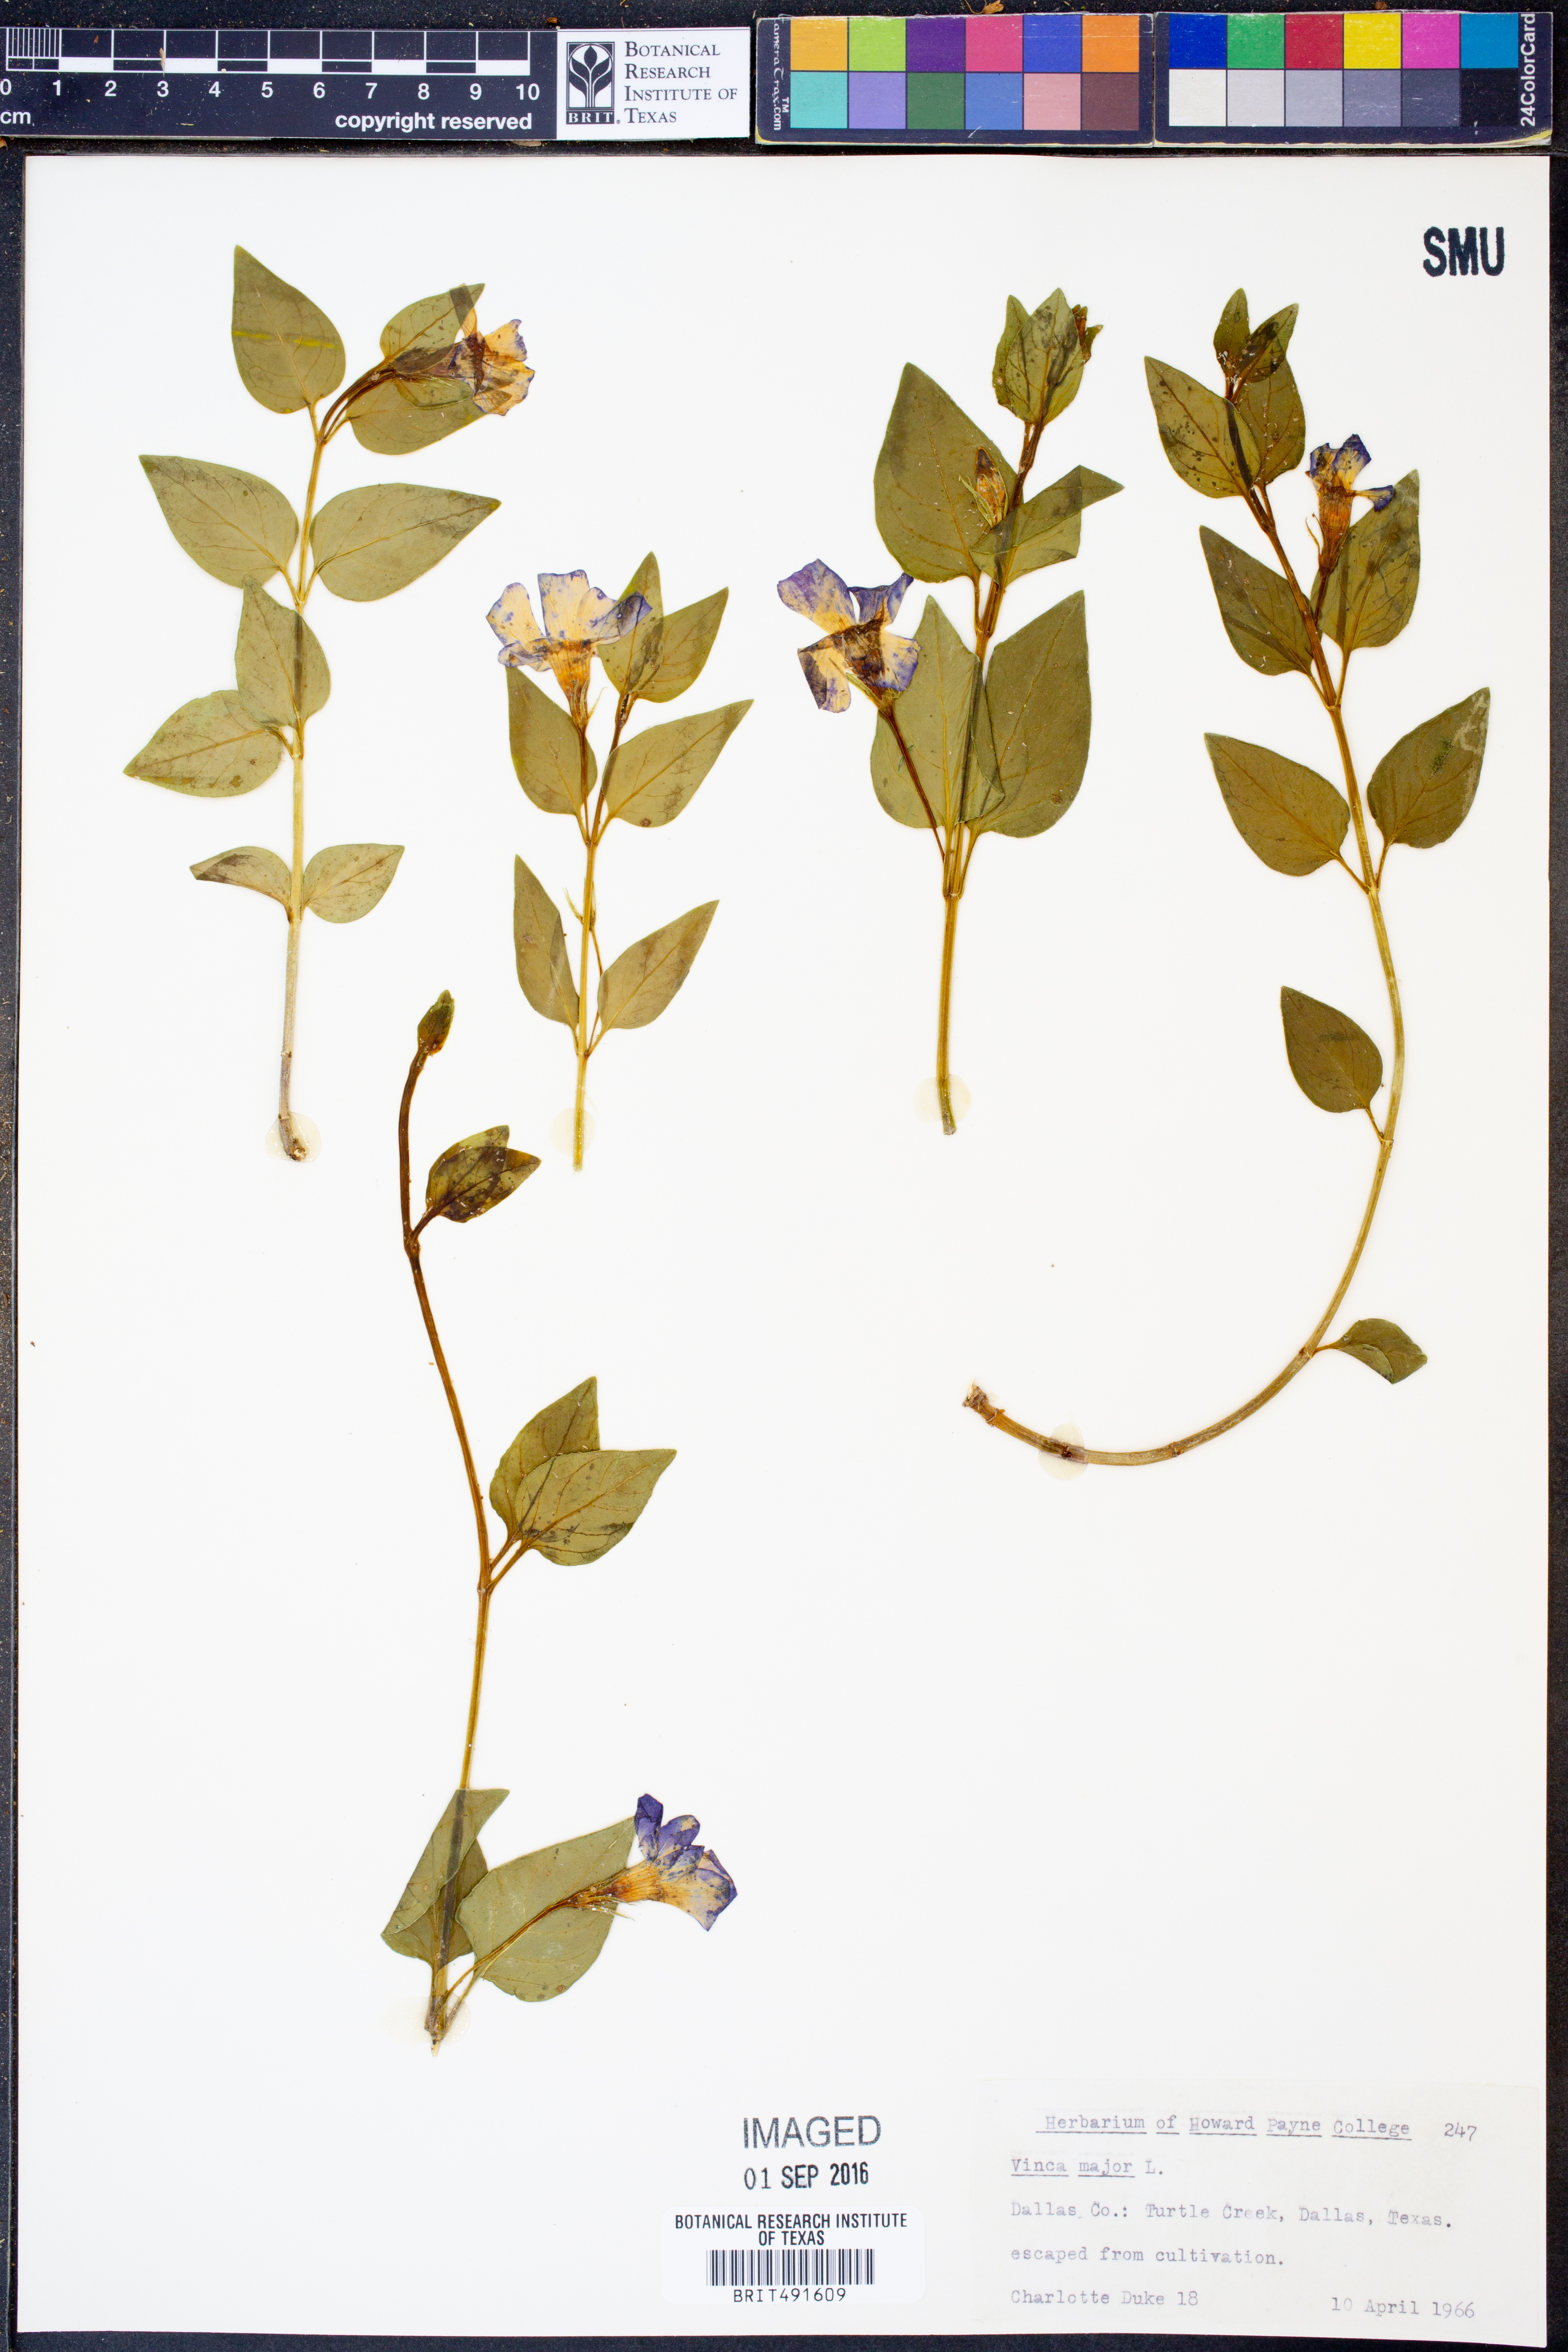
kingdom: Plantae
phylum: Tracheophyta
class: Magnoliopsida
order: Gentianales
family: Apocynaceae
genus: Vinca
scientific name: Vinca major
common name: Greater periwinkle
